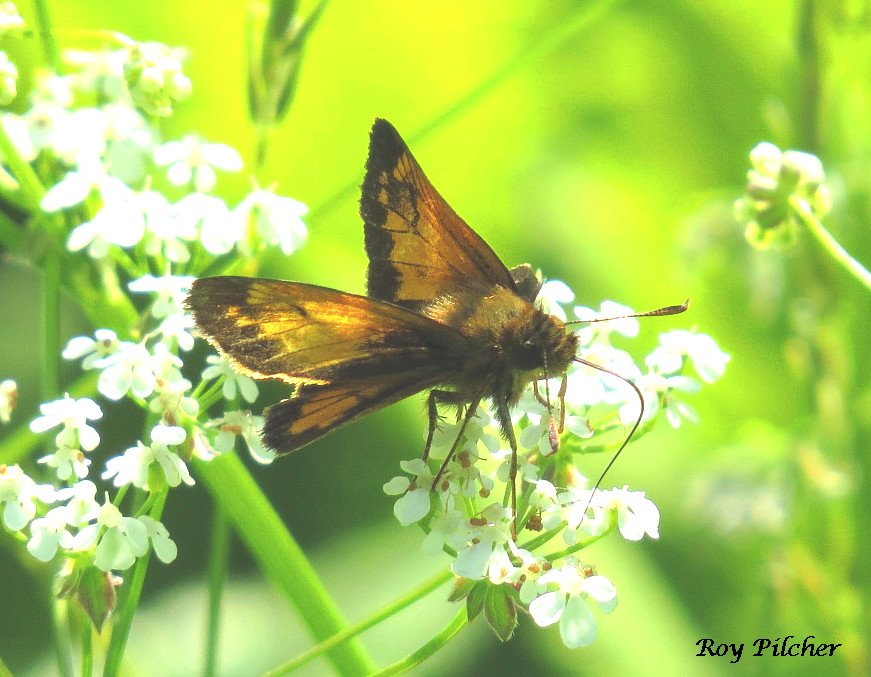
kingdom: Animalia
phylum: Arthropoda
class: Insecta
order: Lepidoptera
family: Hesperiidae
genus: Lon
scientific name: Lon hobomok
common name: Hobomok Skipper
